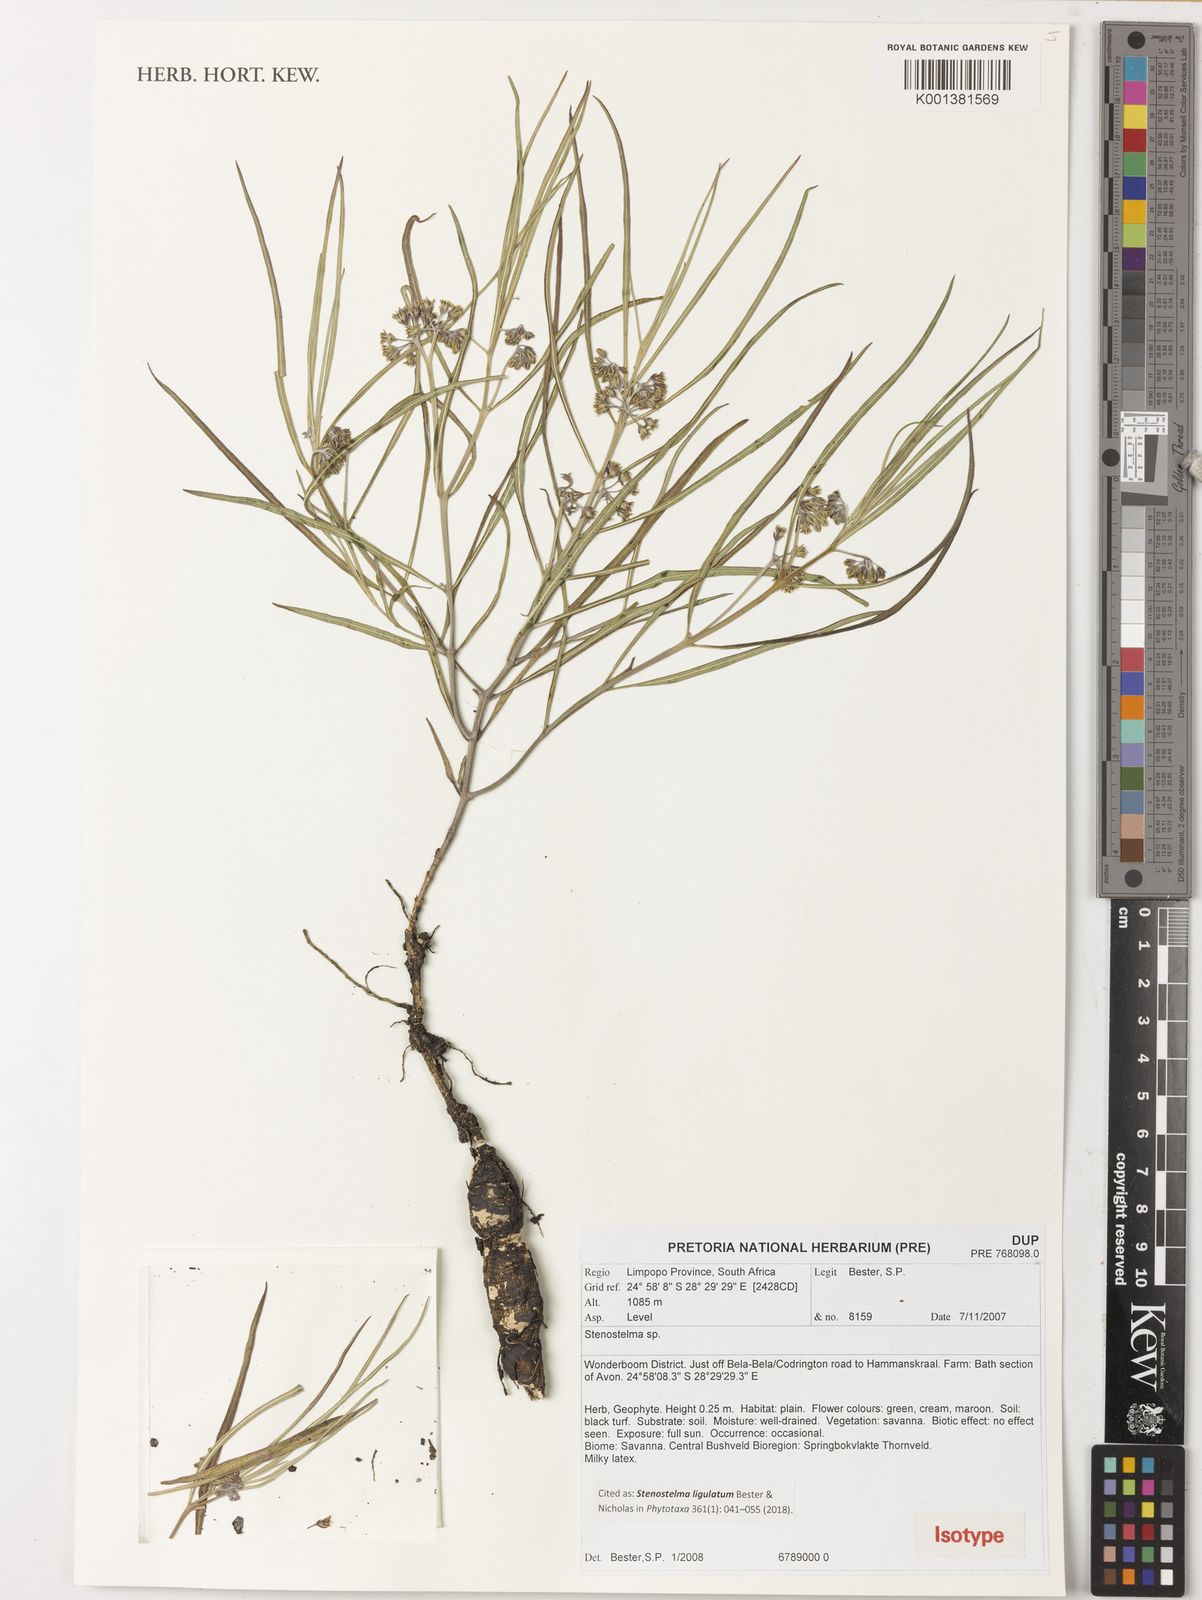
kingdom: Plantae
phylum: Tracheophyta
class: Magnoliopsida
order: Gentianales
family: Apocynaceae
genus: Stenostelma
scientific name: Stenostelma ligulatum
